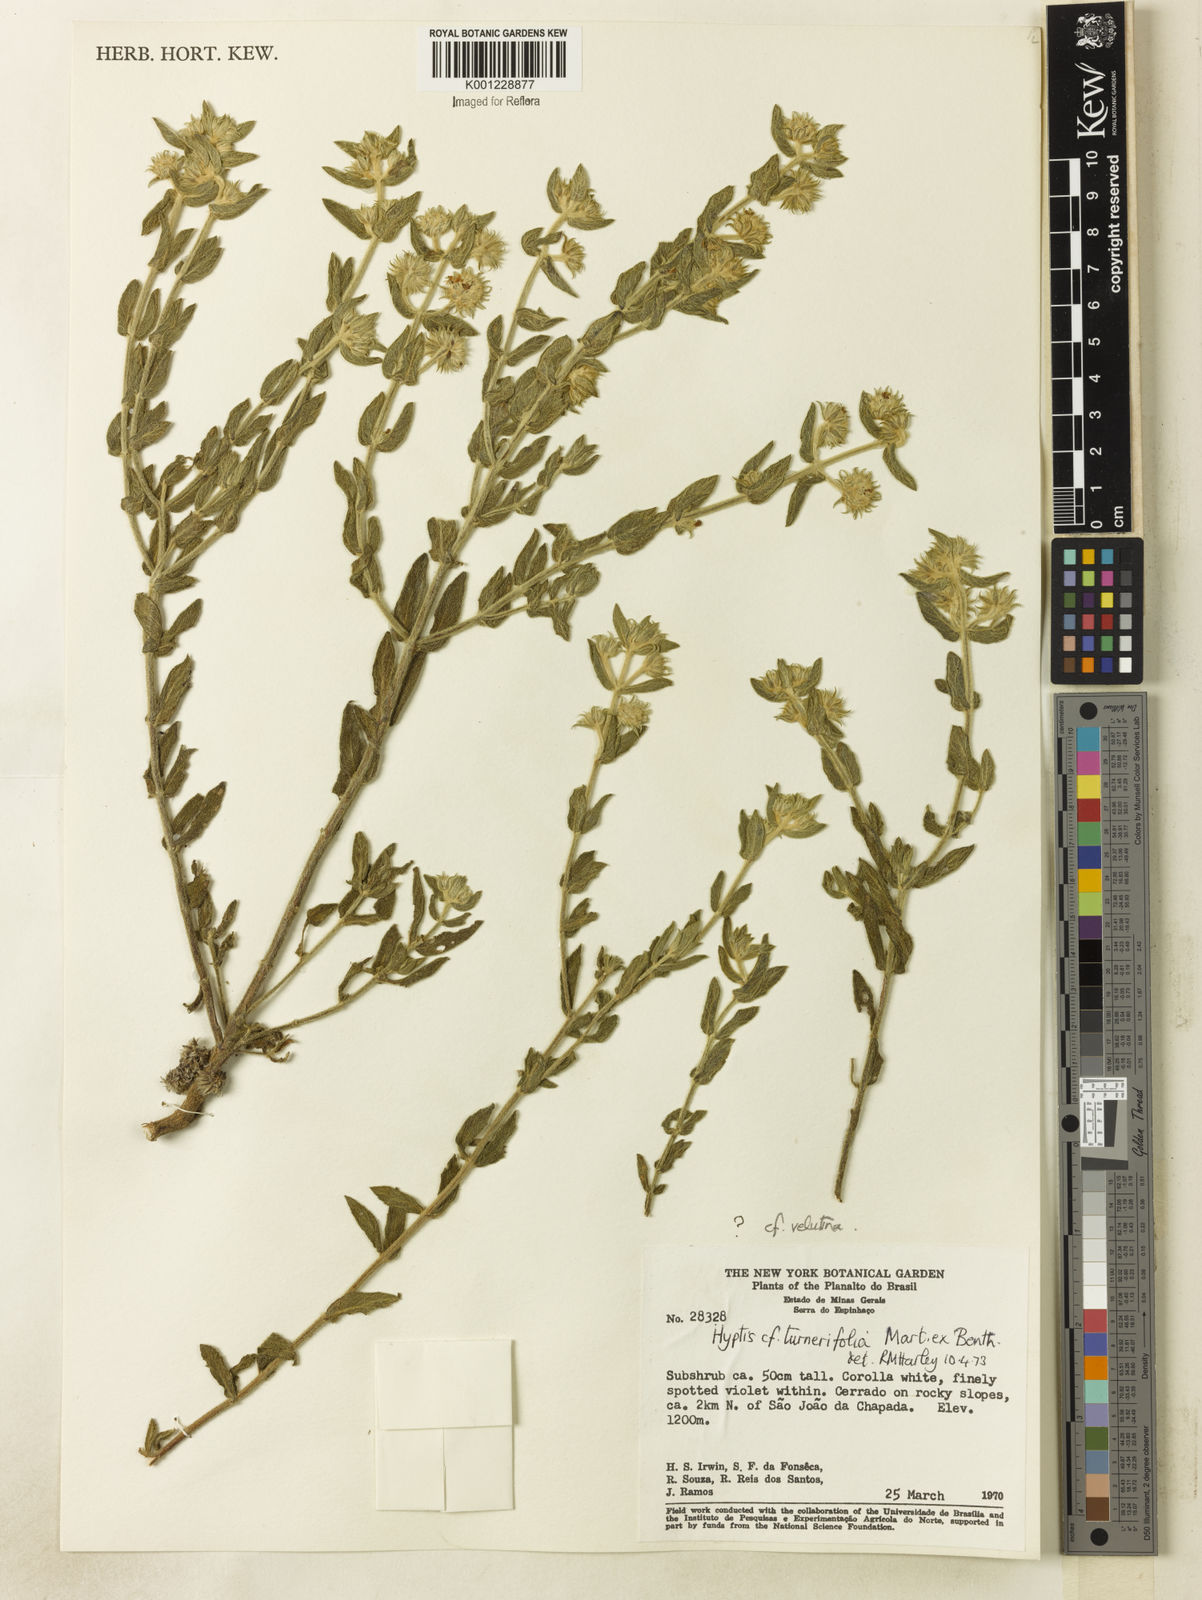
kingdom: Plantae
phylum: Tracheophyta
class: Magnoliopsida
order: Lamiales
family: Lamiaceae
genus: Hyptis
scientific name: Hyptis velutina
